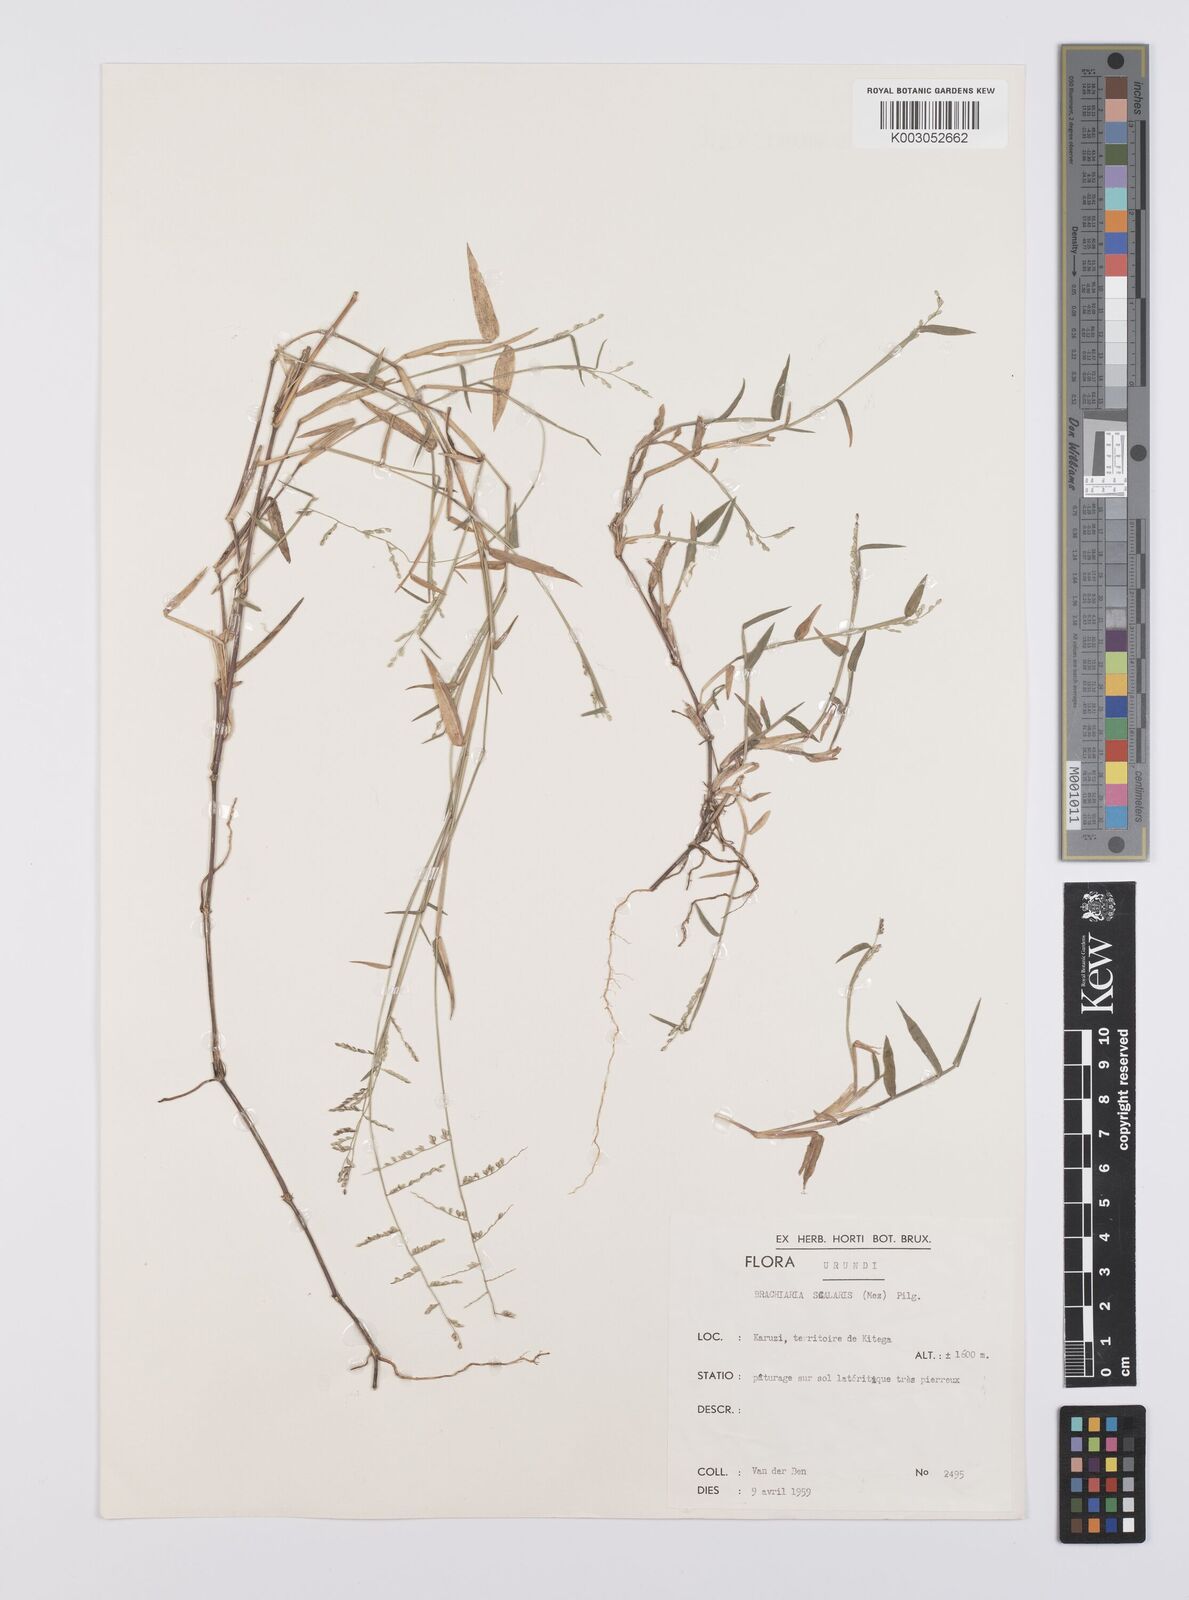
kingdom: Plantae
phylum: Tracheophyta
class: Liliopsida
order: Poales
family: Poaceae
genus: Urochloa
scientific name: Urochloa comata
